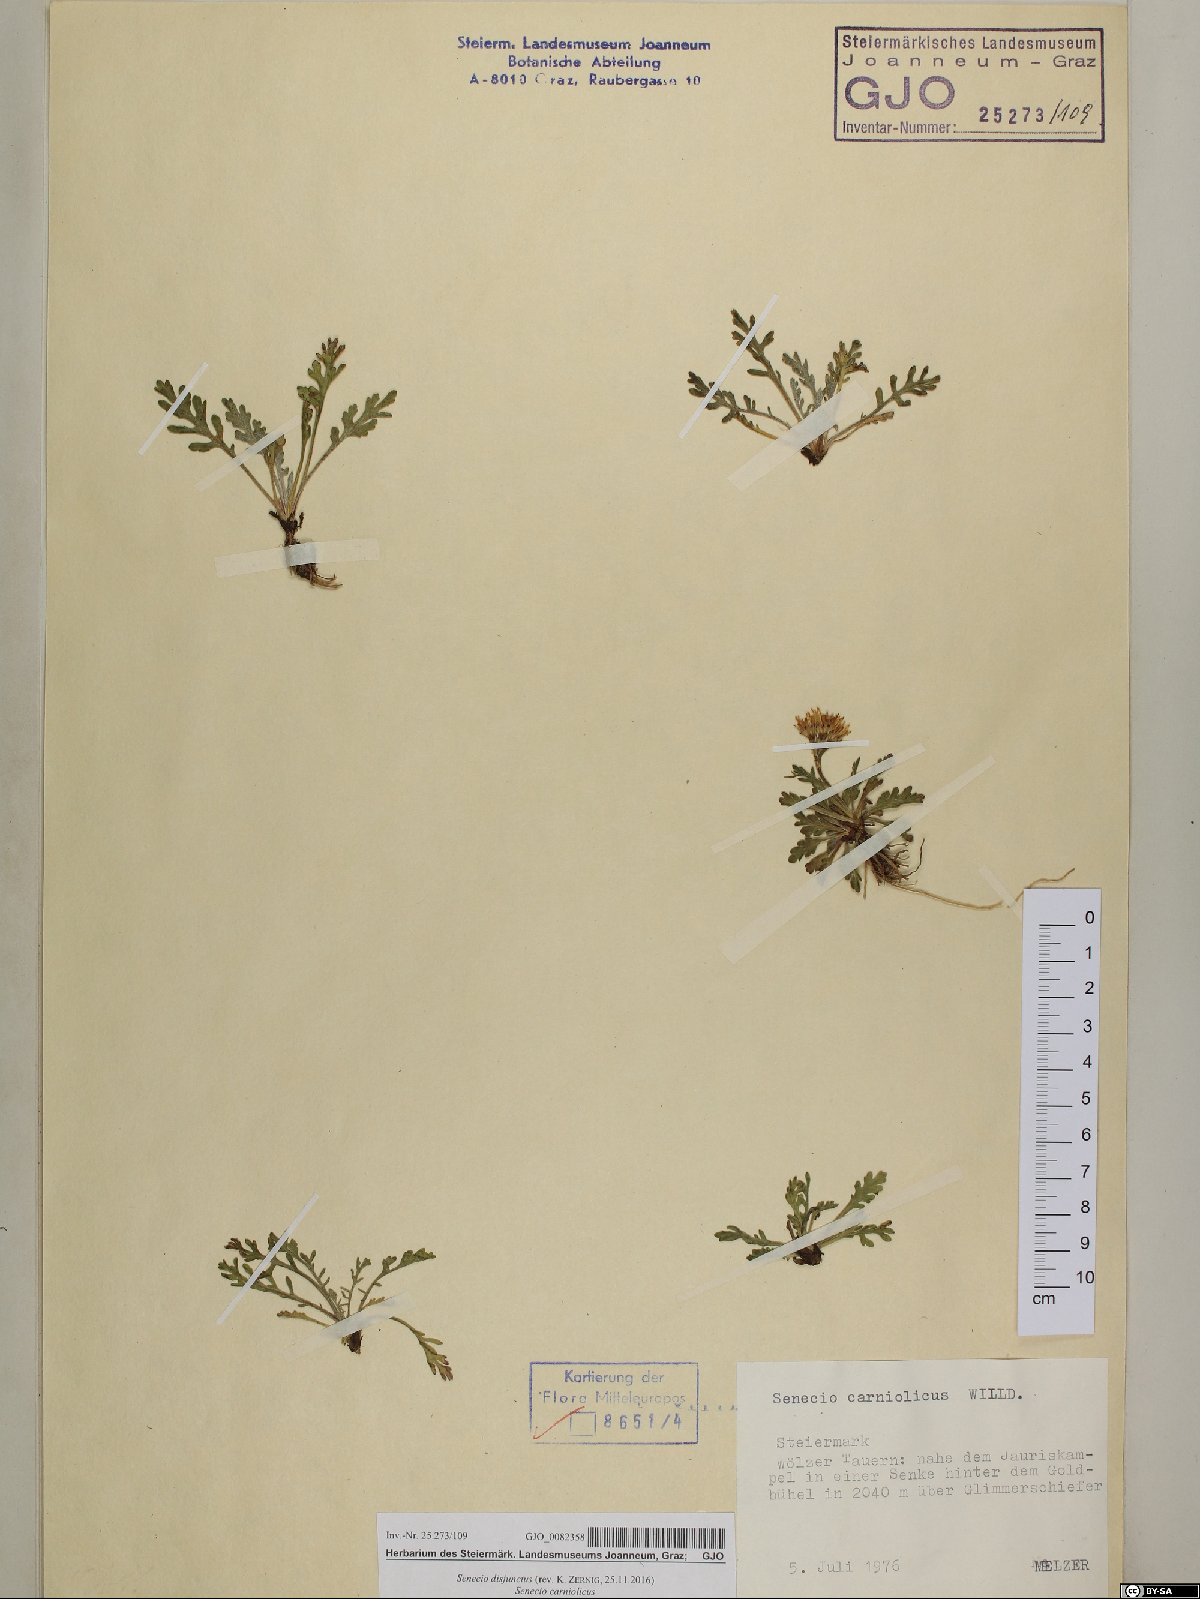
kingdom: Plantae
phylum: Tracheophyta
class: Magnoliopsida
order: Asterales
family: Asteraceae
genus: Jacobaea
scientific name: Jacobaea disjuncta
